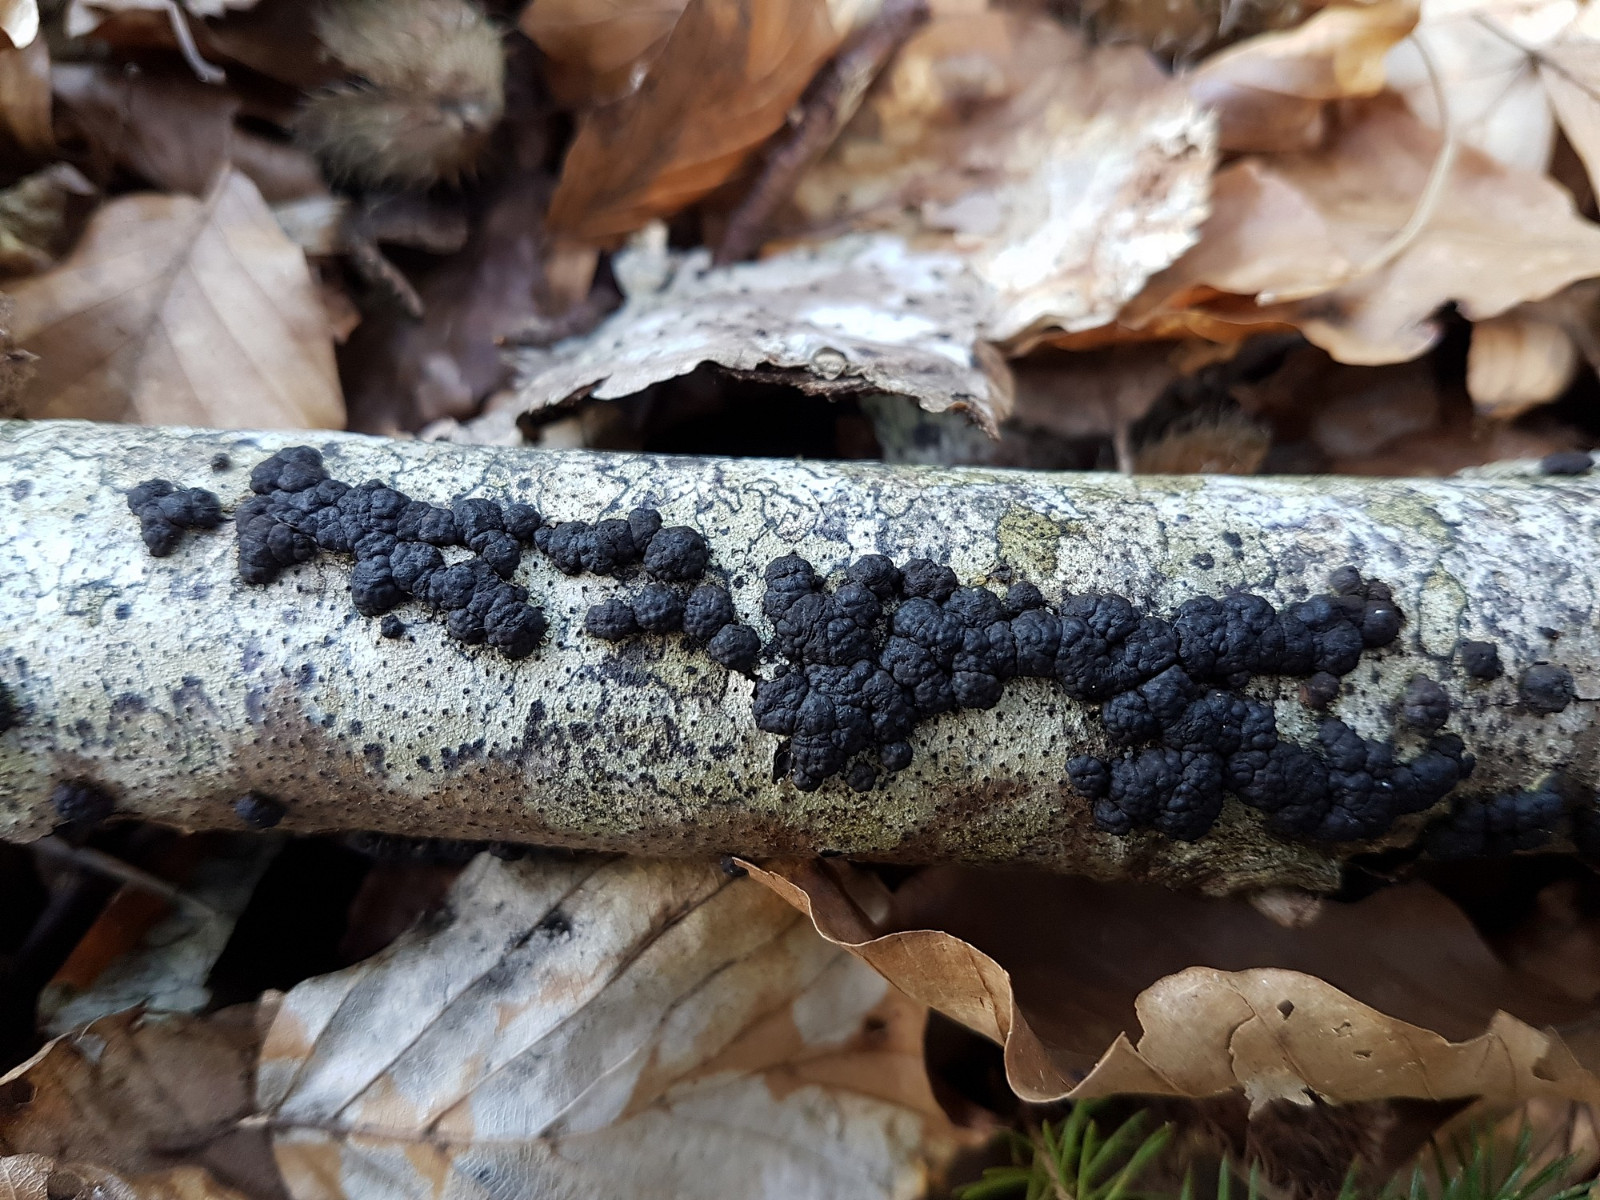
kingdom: Fungi
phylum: Ascomycota
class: Sordariomycetes
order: Xylariales
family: Hypoxylaceae
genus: Jackrogersella
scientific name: Jackrogersella cohaerens
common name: sammenflydende kulbær
